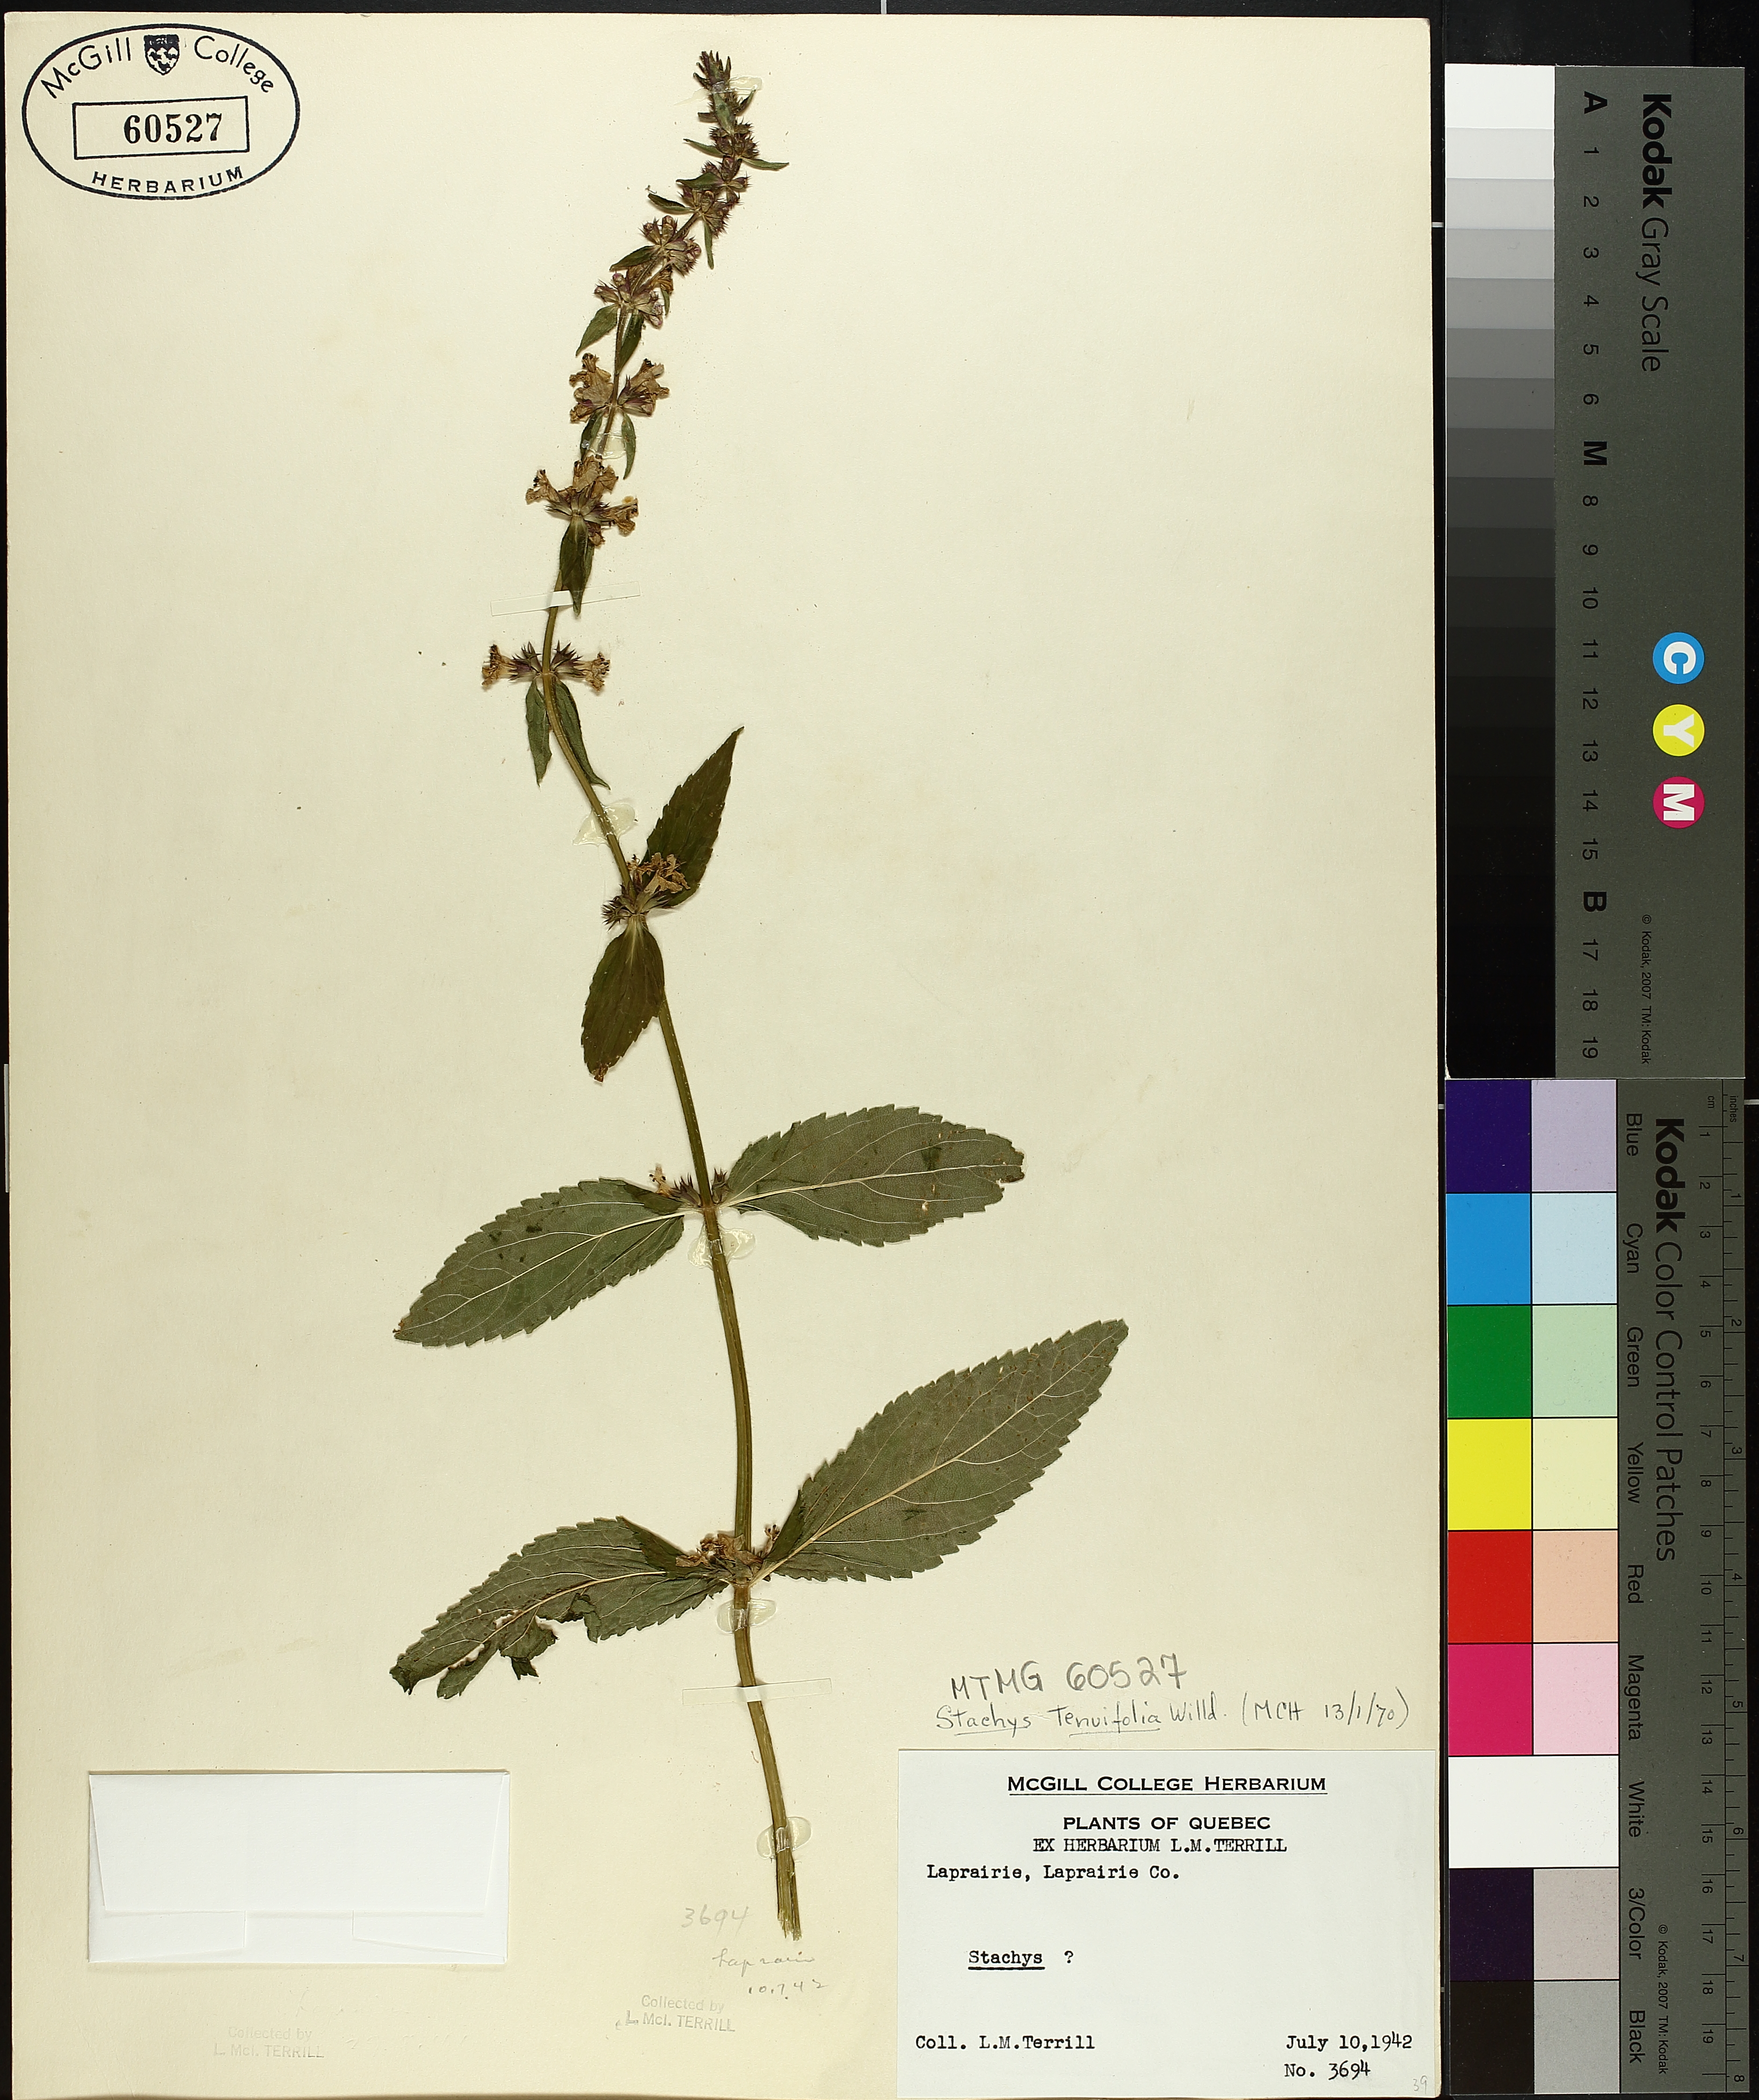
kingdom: Plantae
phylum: Tracheophyta
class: Magnoliopsida
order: Lamiales
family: Lamiaceae
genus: Stachys
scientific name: Stachys tenuifolia
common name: Smooth hedge-nettle
